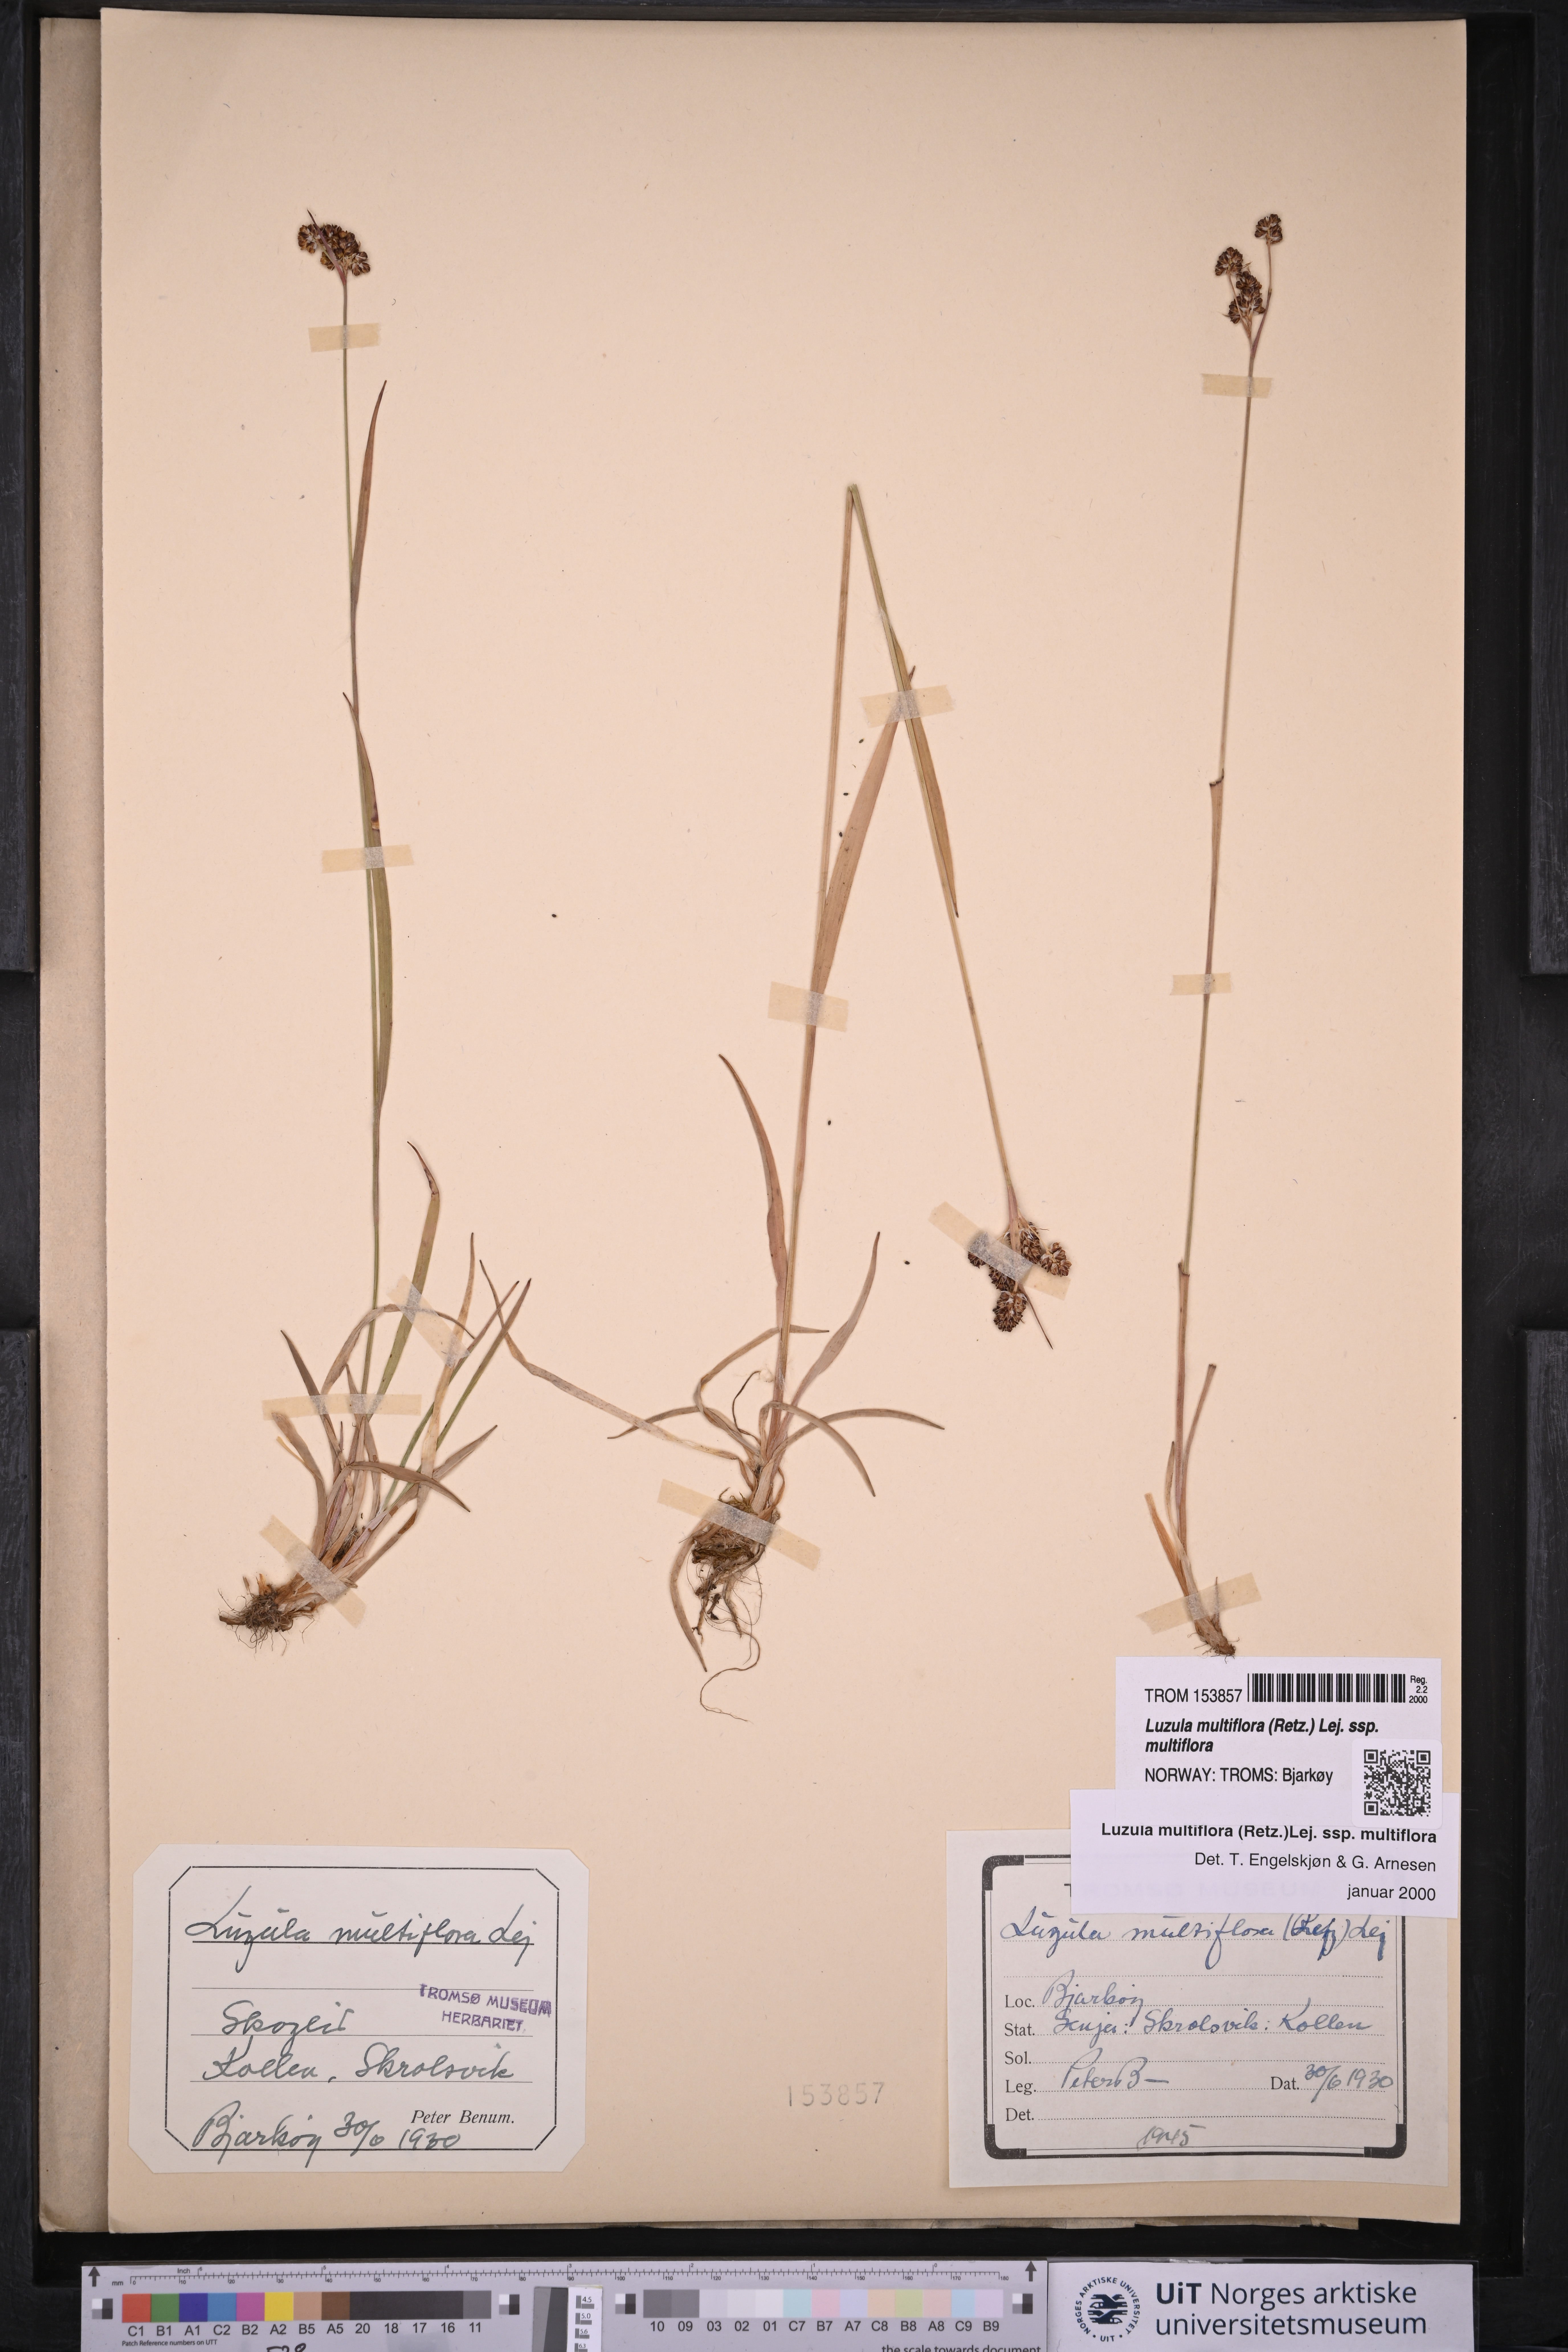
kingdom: Plantae
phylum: Tracheophyta
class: Liliopsida
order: Poales
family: Juncaceae
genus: Luzula
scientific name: Luzula multiflora
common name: Heath wood-rush
